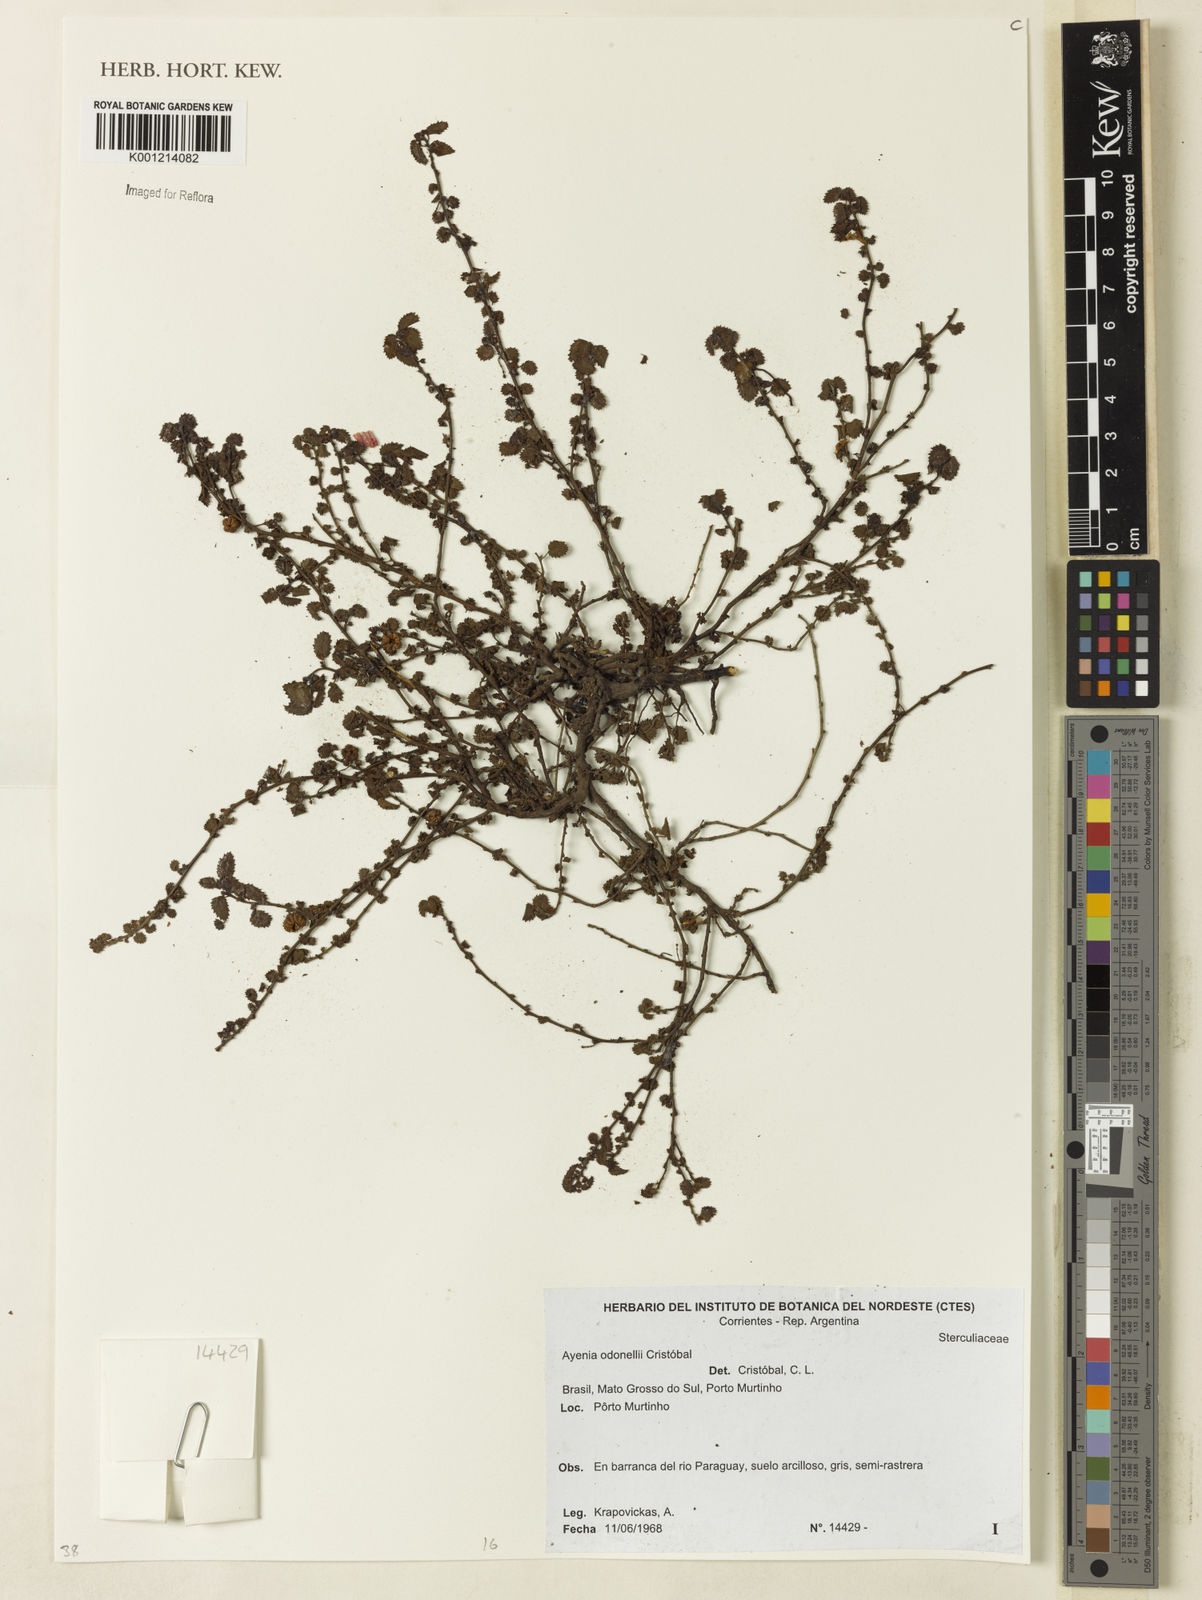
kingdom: Plantae
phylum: Tracheophyta
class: Magnoliopsida
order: Malvales
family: Malvaceae
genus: Ayenia
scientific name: Ayenia
